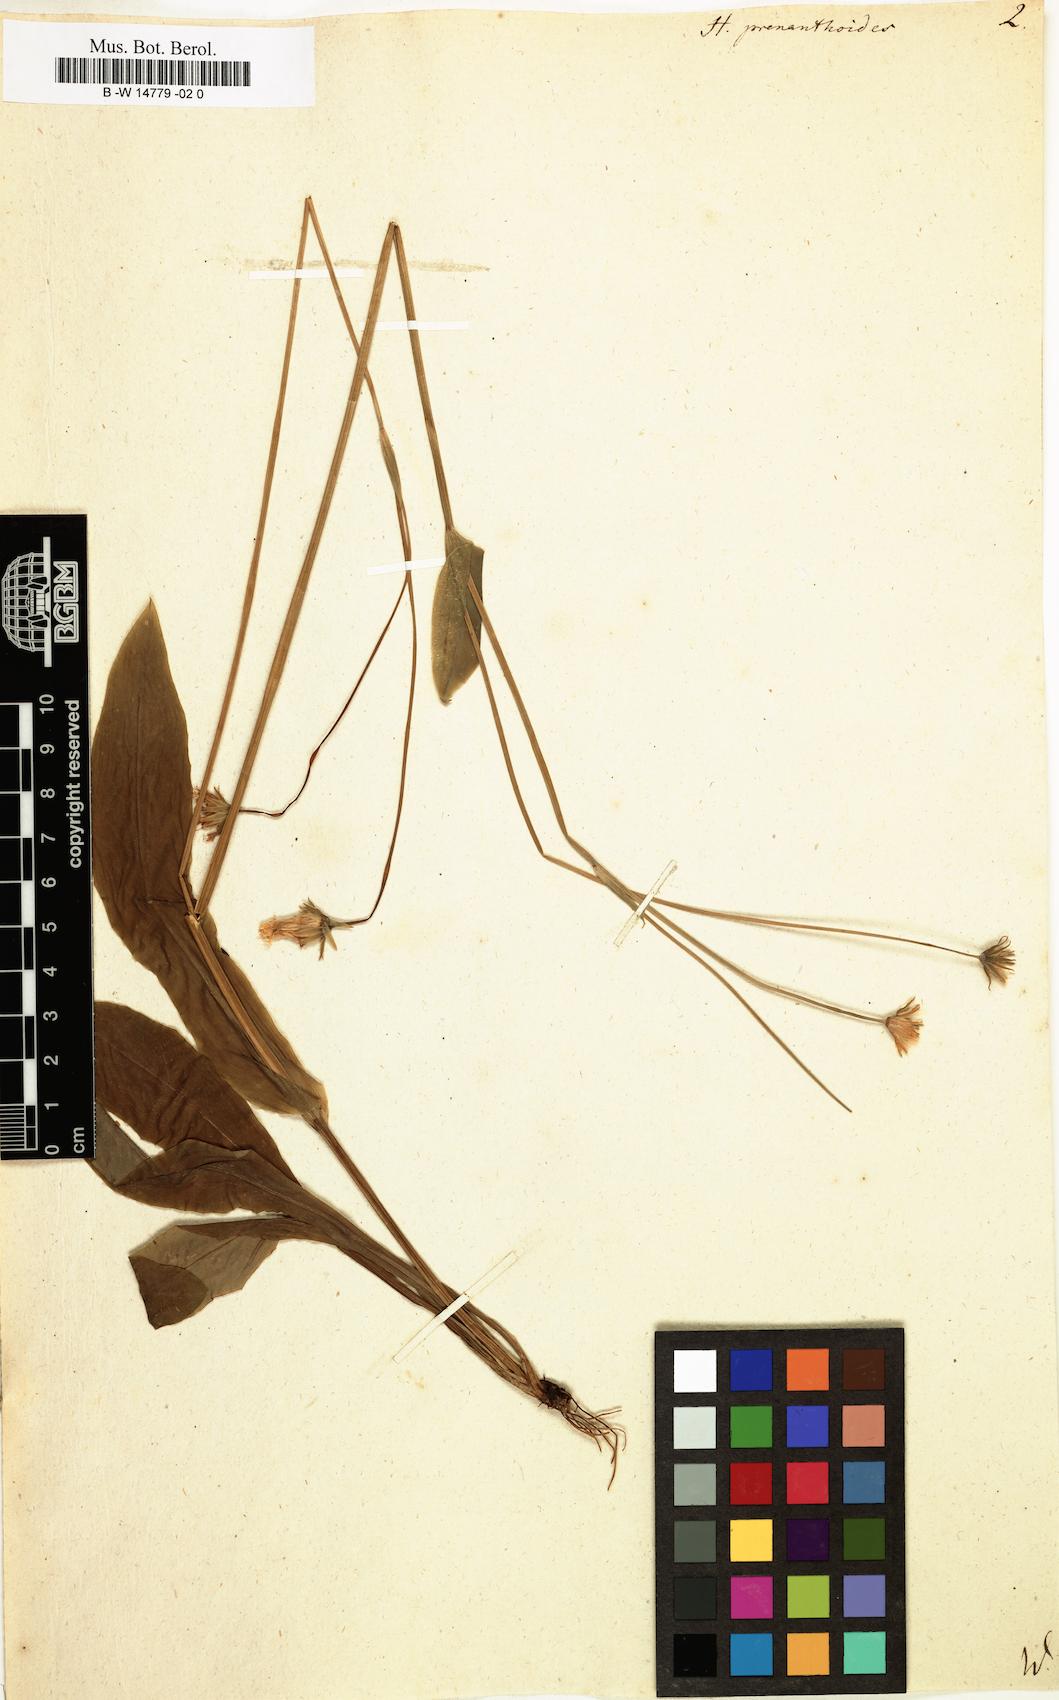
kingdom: Plantae
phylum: Tracheophyta
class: Magnoliopsida
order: Asterales
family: Asteraceae
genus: Krigia
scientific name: Krigia biflora
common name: Orange dwarf-dandelion
